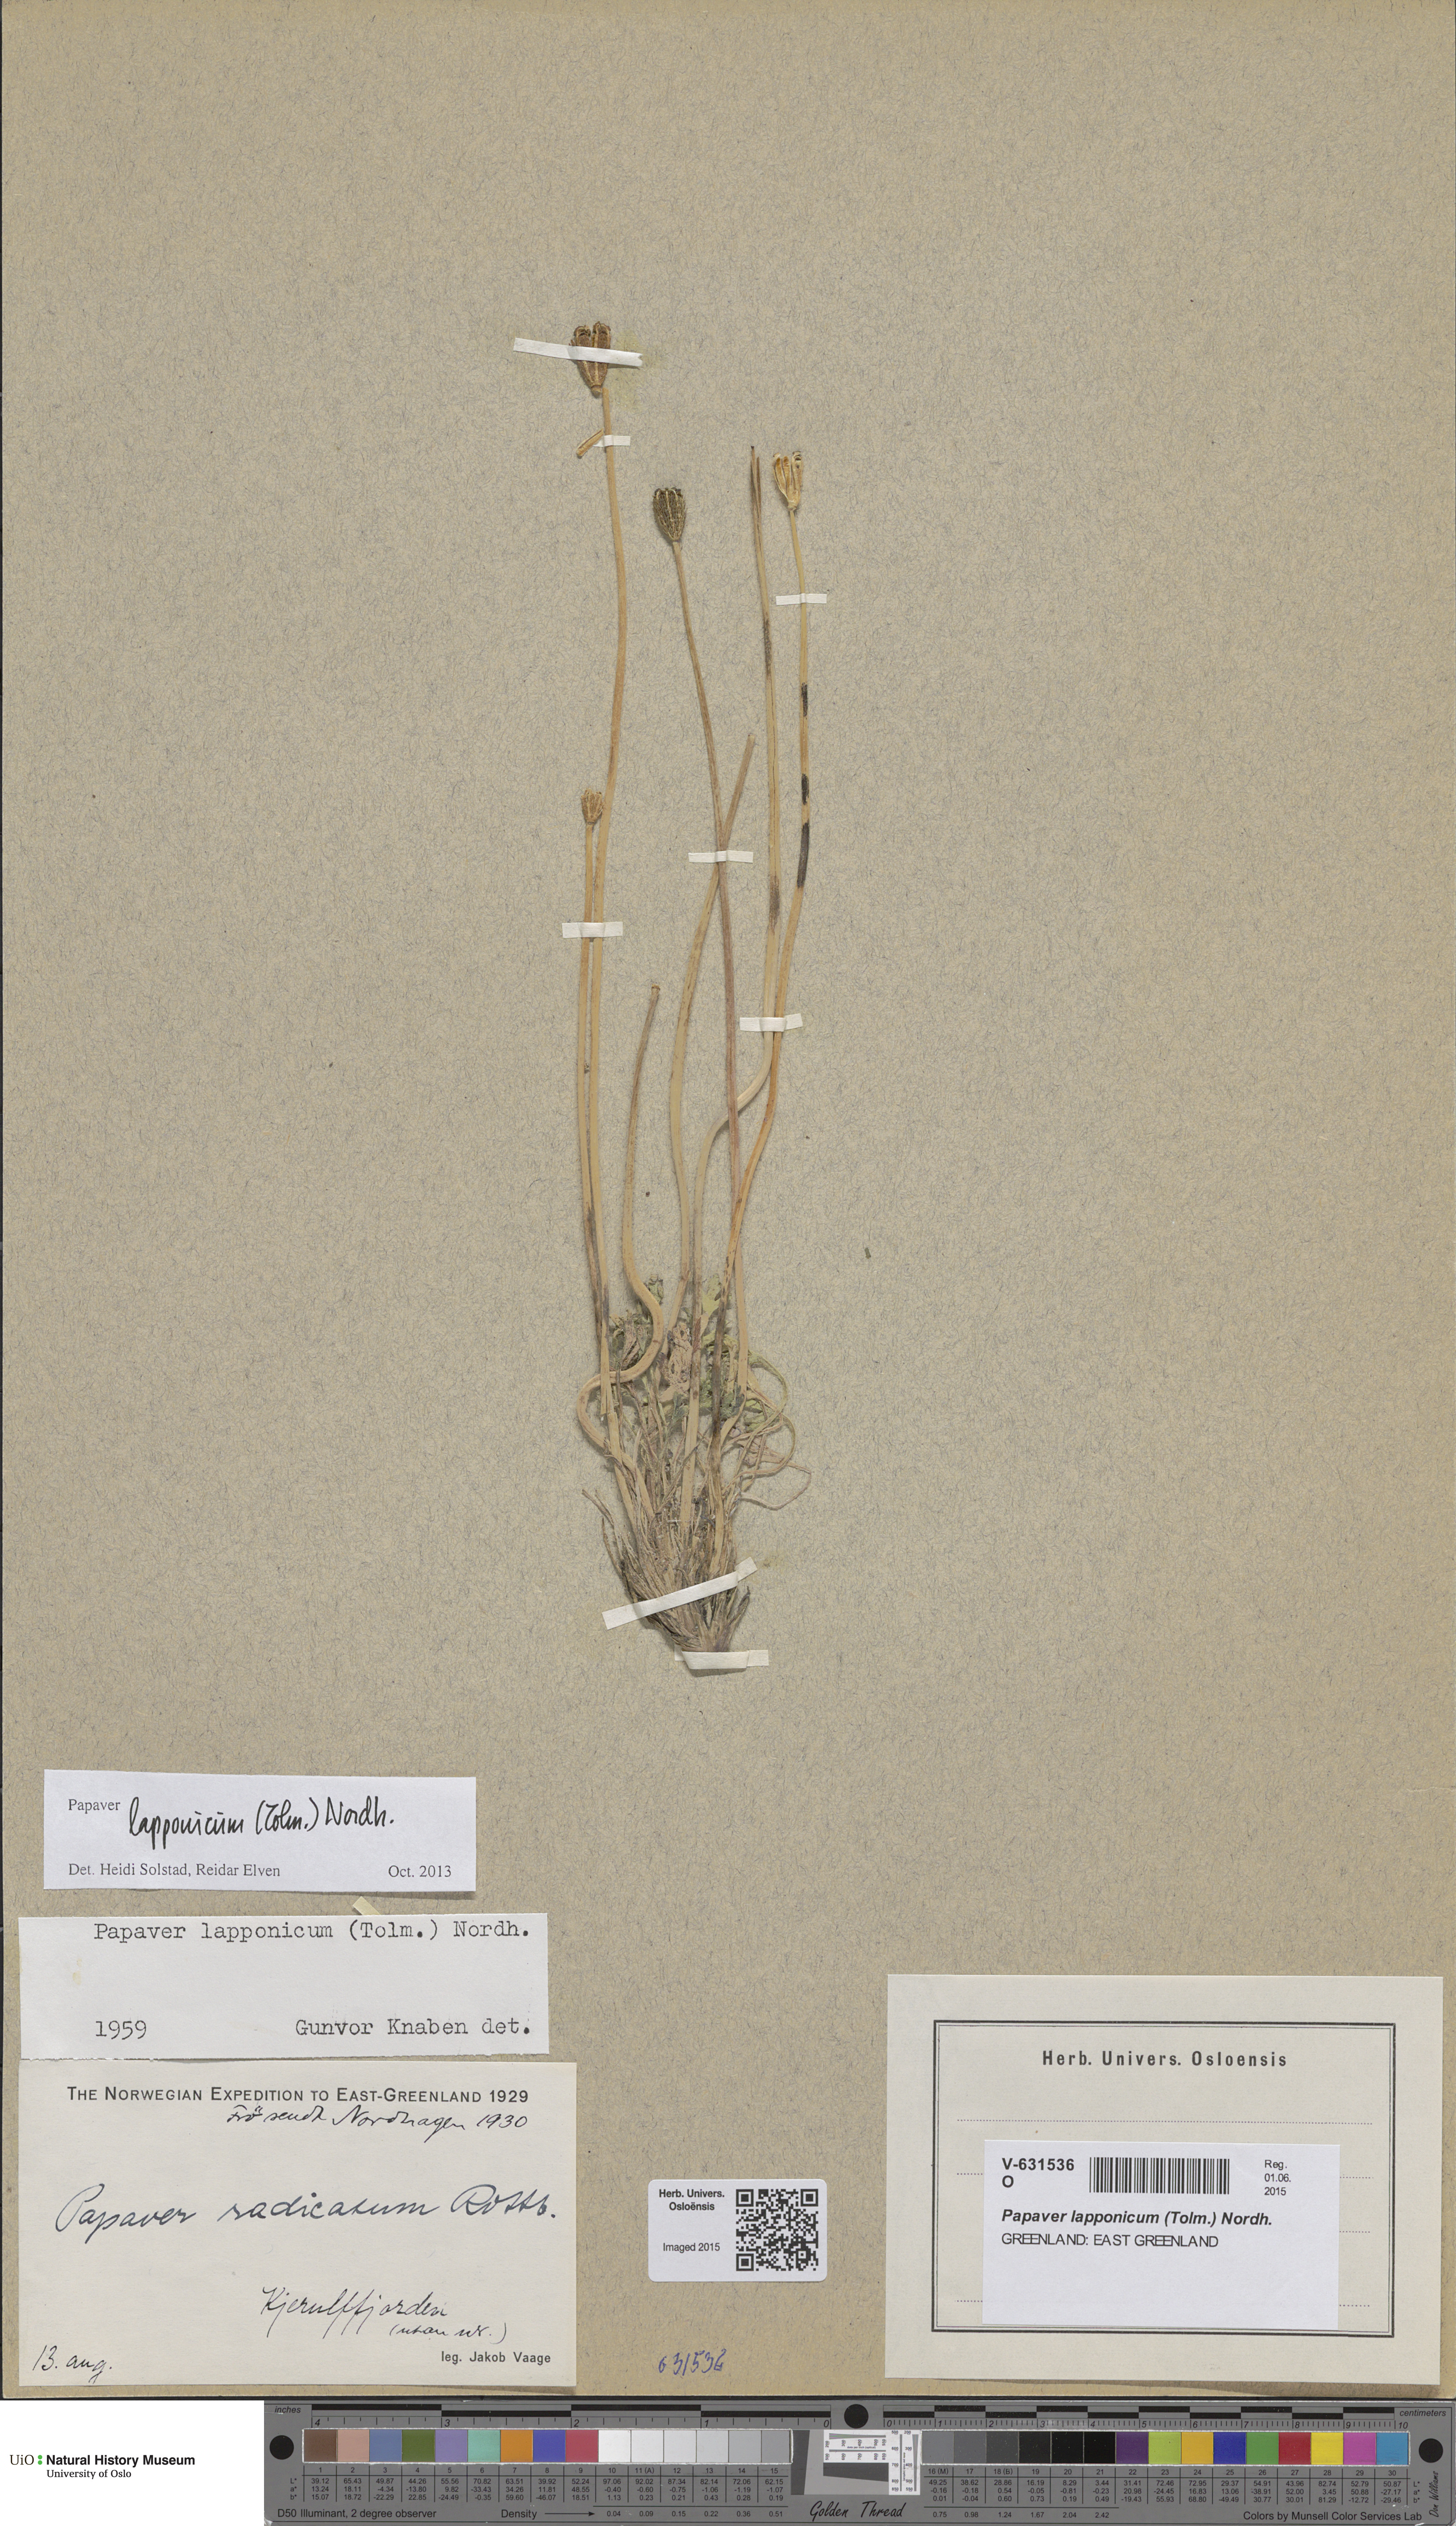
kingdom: Plantae
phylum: Tracheophyta
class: Magnoliopsida
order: Ranunculales
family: Papaveraceae
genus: Papaver
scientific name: Papaver lapponicum
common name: Lapland poppy
